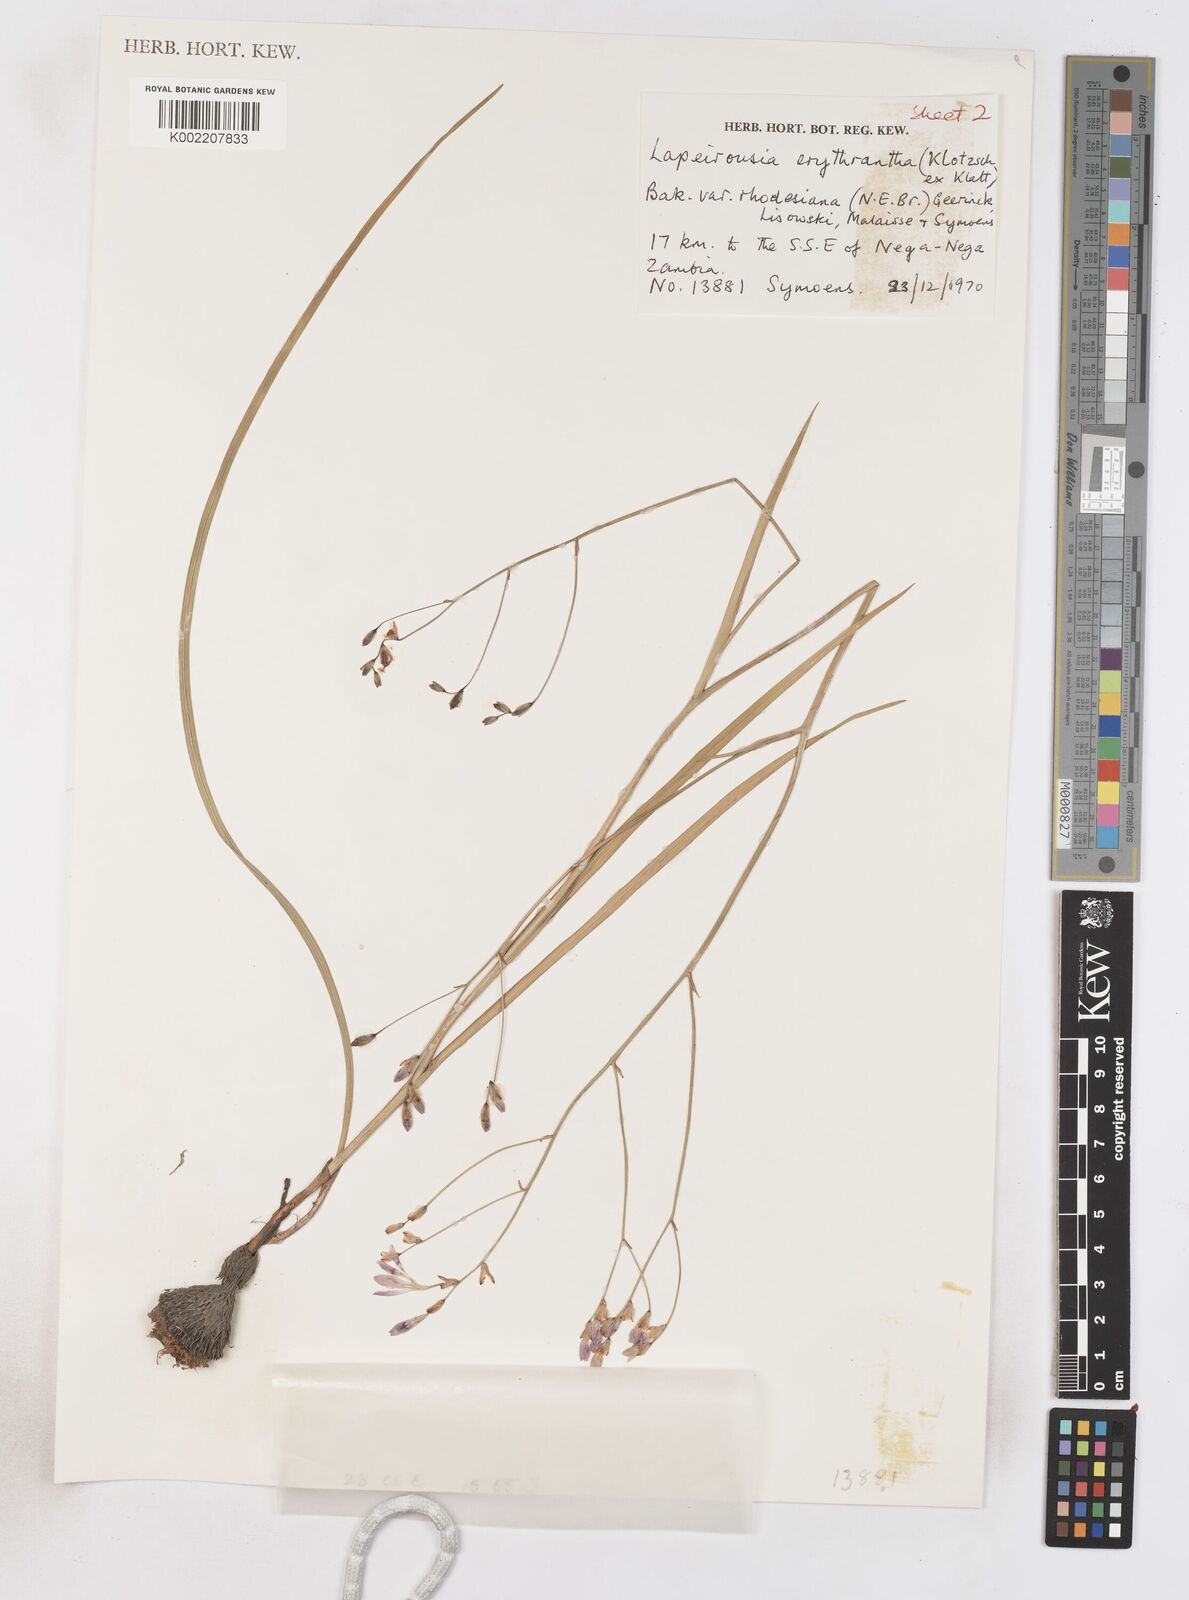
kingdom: Plantae
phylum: Tracheophyta
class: Liliopsida
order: Asparagales
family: Iridaceae
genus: Afrosolen
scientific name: Afrosolen rivularis
